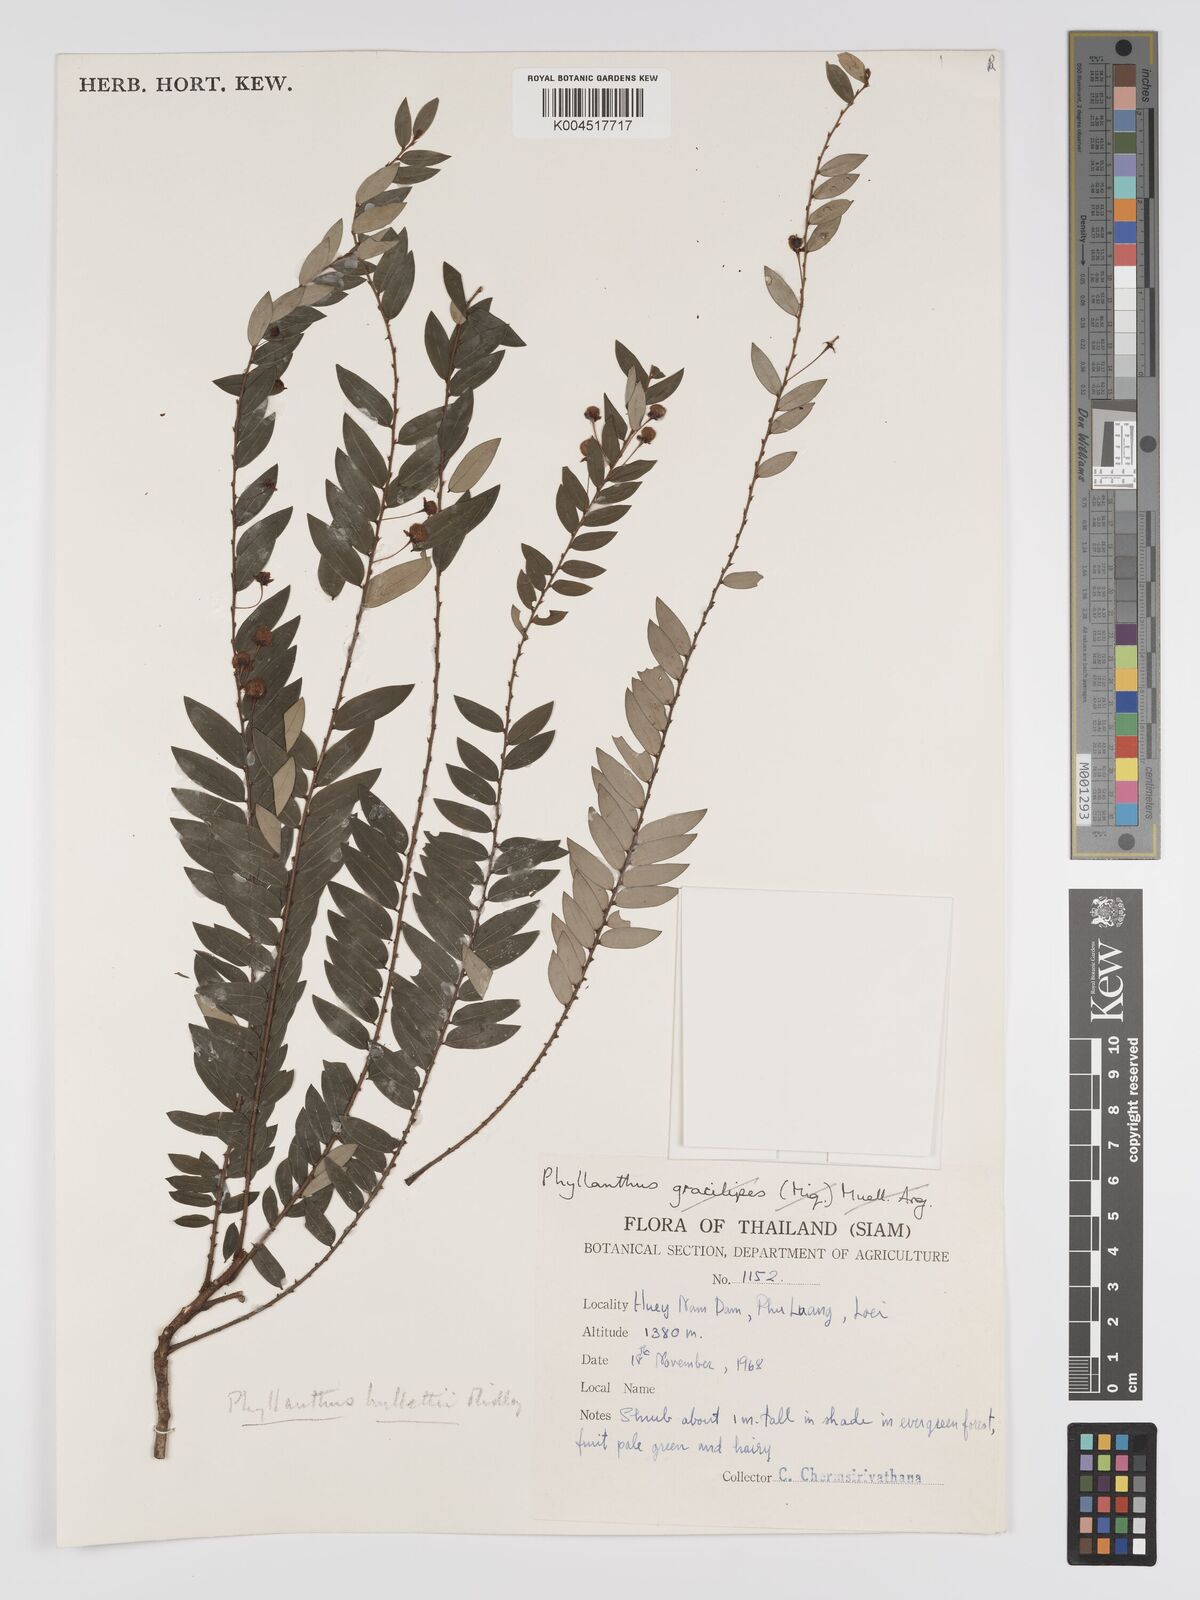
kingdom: Plantae
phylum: Tracheophyta
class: Magnoliopsida
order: Malpighiales
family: Phyllanthaceae
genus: Phyllanthus
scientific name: Phyllanthus gracilipes
